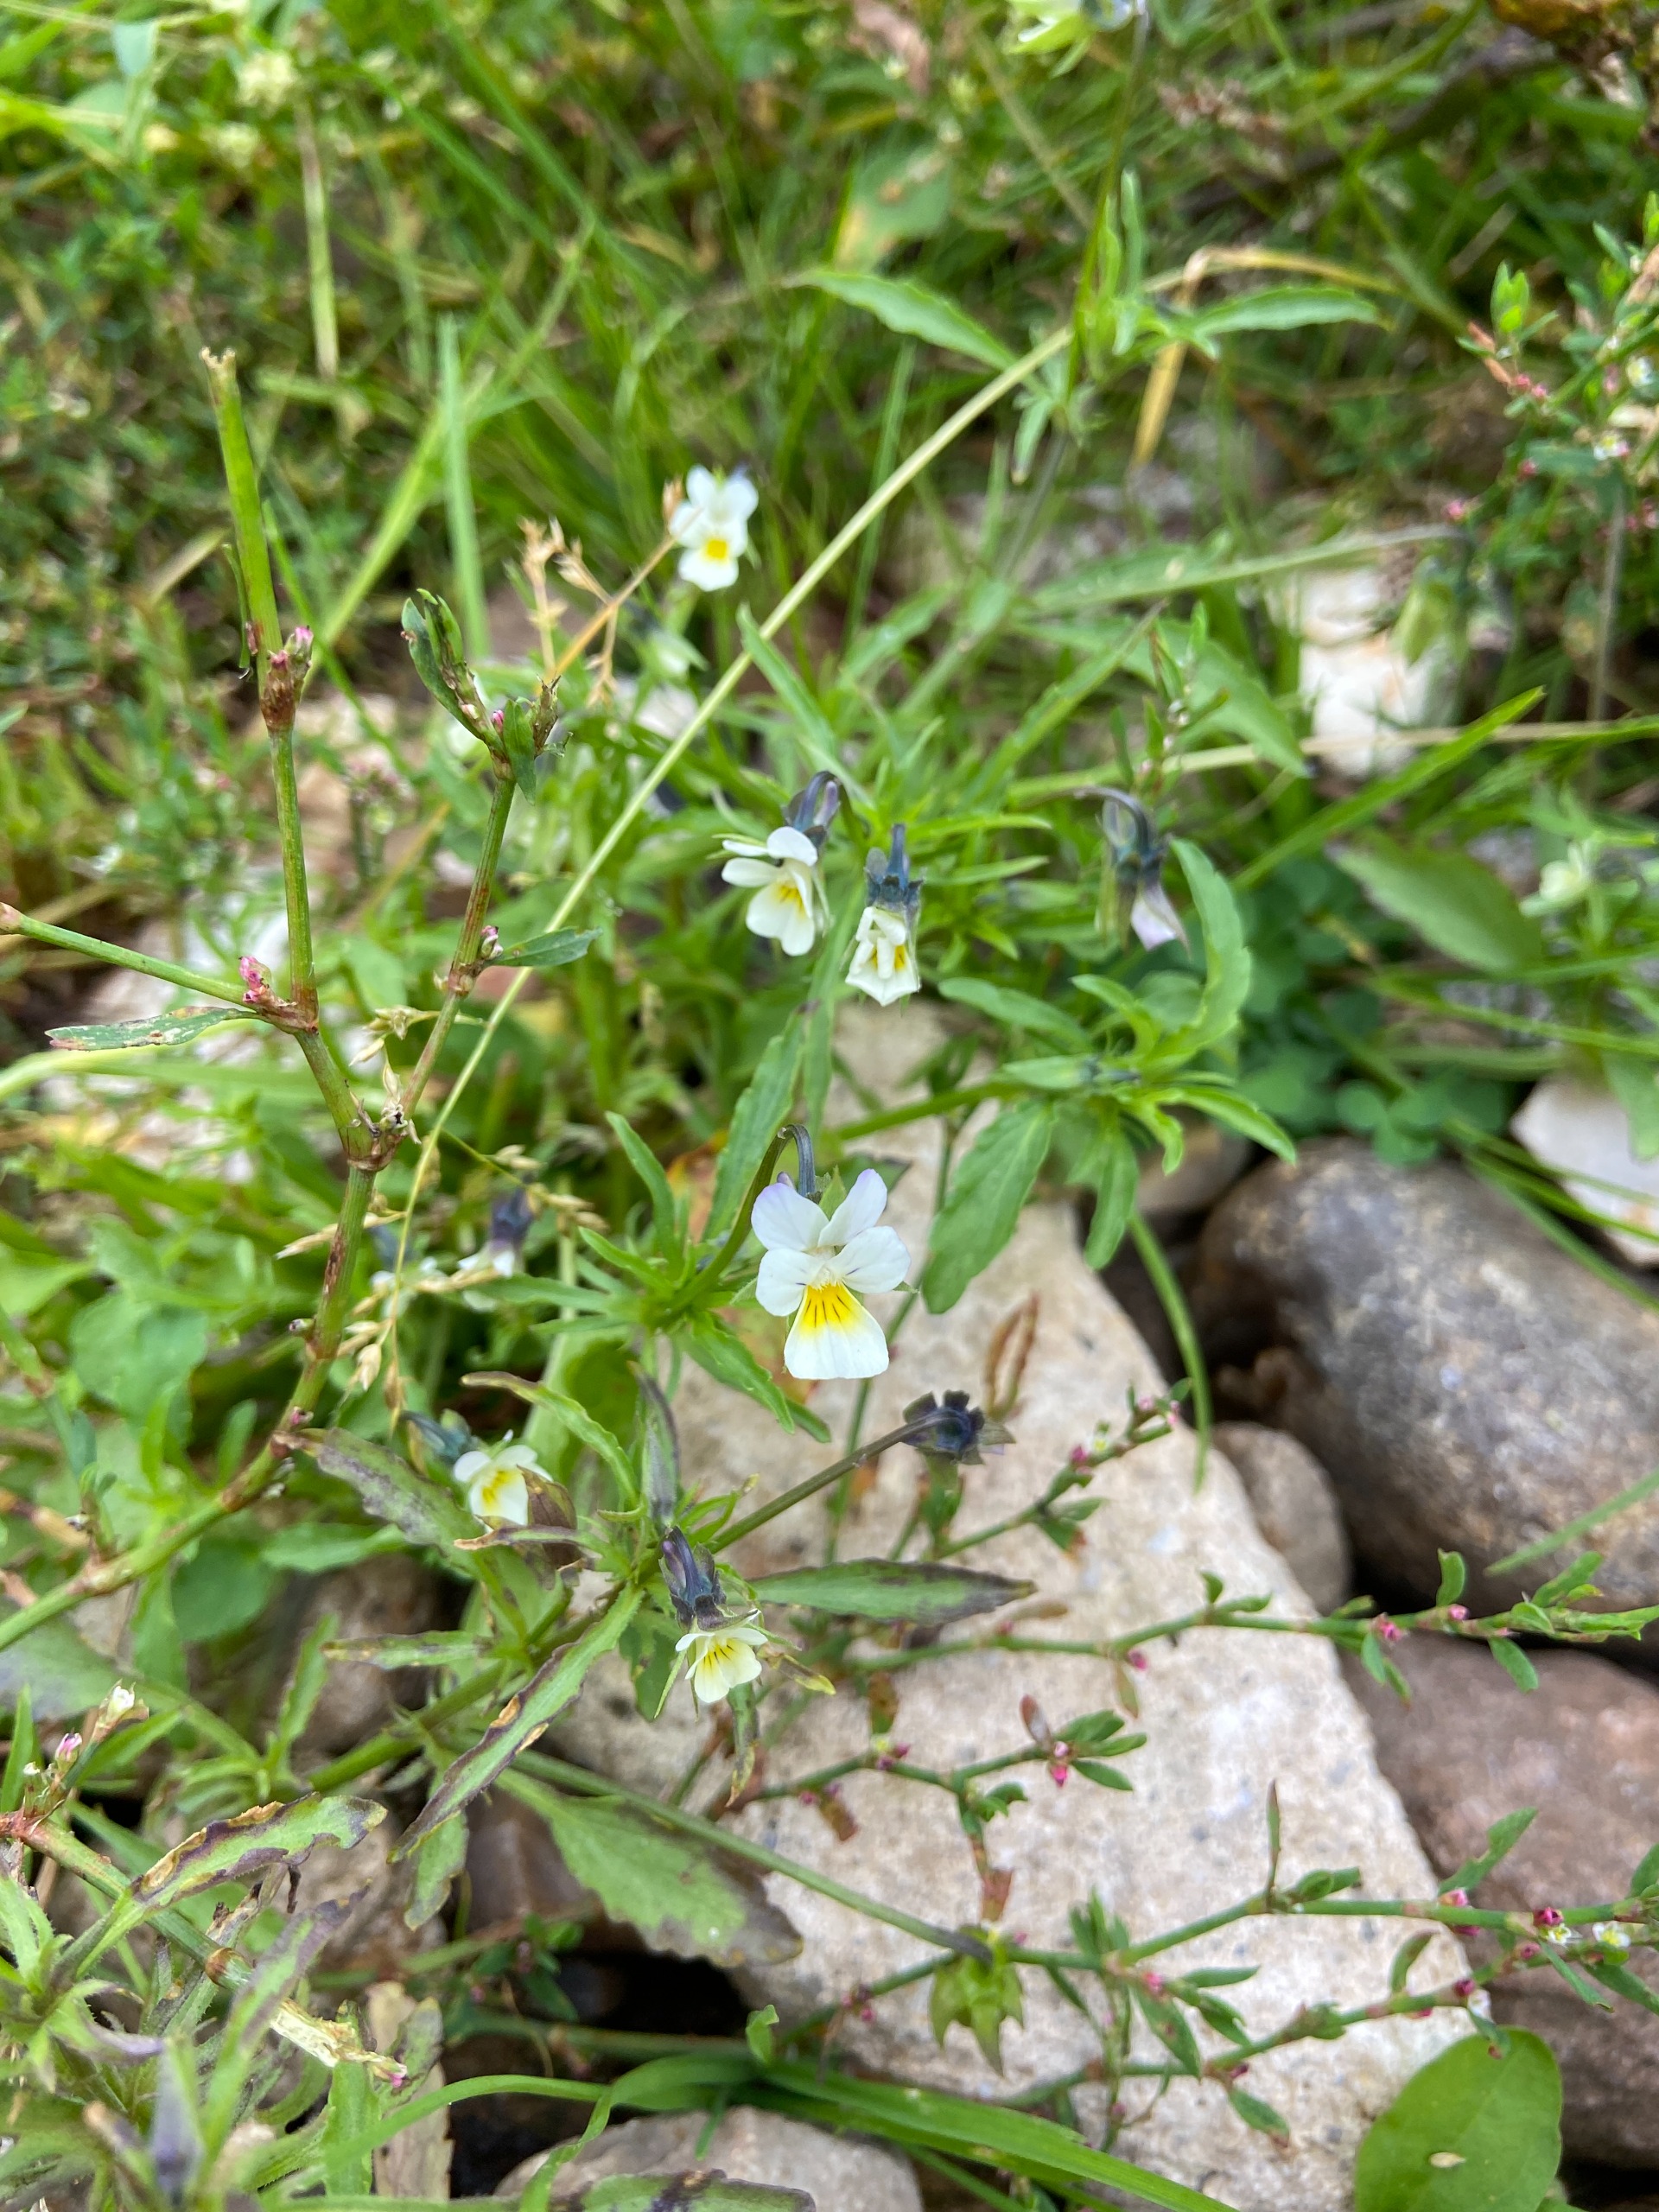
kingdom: Plantae
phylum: Tracheophyta
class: Magnoliopsida
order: Malpighiales
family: Violaceae
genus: Viola
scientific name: Viola arvensis
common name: Ager-stedmoderblomst
